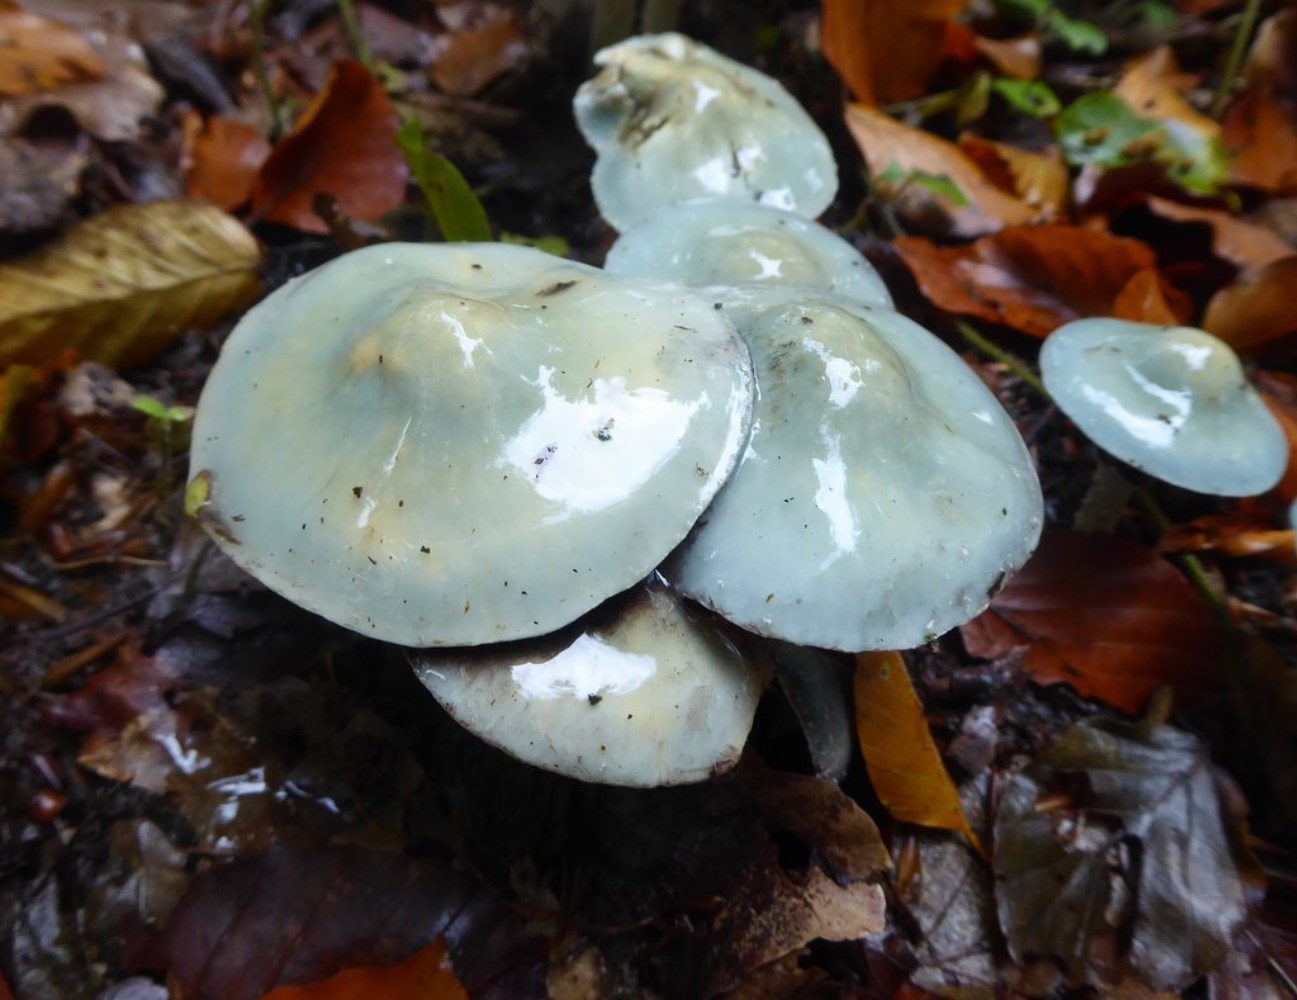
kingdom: Fungi
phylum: Basidiomycota
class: Agaricomycetes
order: Agaricales
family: Strophariaceae
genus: Stropharia
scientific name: Stropharia aeruginosa
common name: spanskgrøn bredblad
